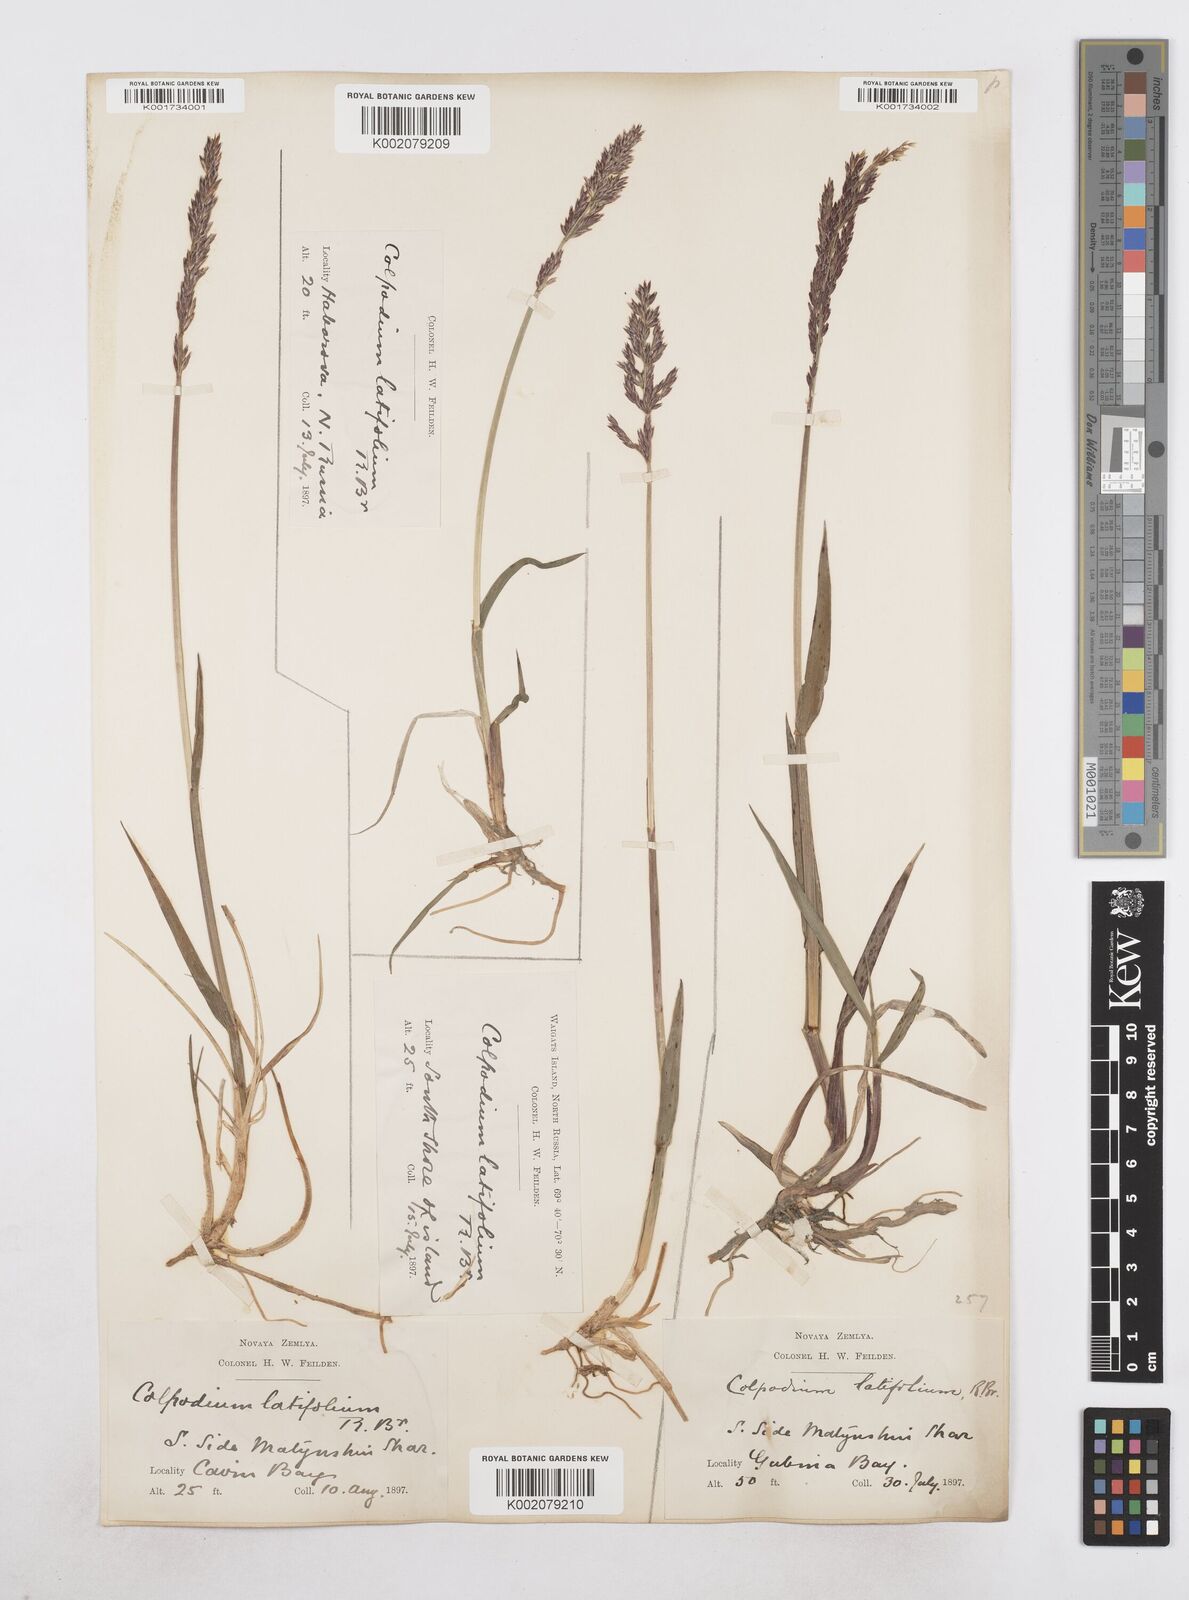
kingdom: Plantae
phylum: Tracheophyta
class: Liliopsida
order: Poales
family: Poaceae
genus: Arctagrostis
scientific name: Arctagrostis latifolia
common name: Arctic grass
